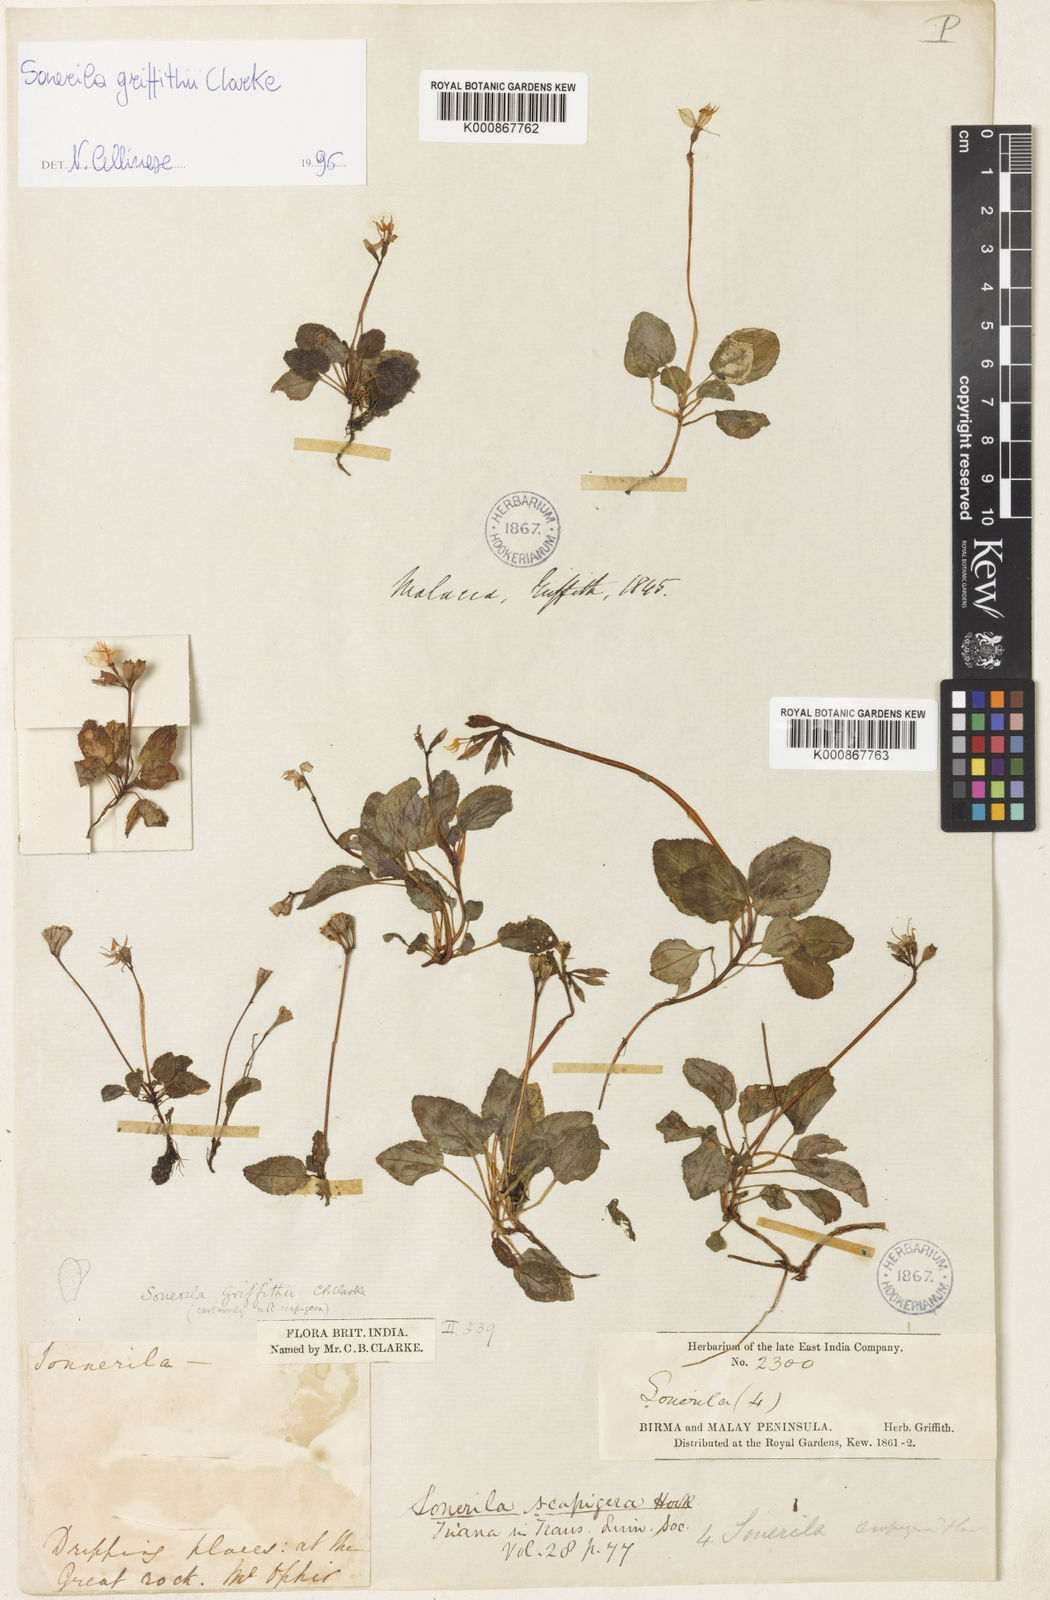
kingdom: Plantae
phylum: Tracheophyta
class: Magnoliopsida
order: Myrtales
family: Melastomataceae
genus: Sonerila
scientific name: Sonerila griffithii
